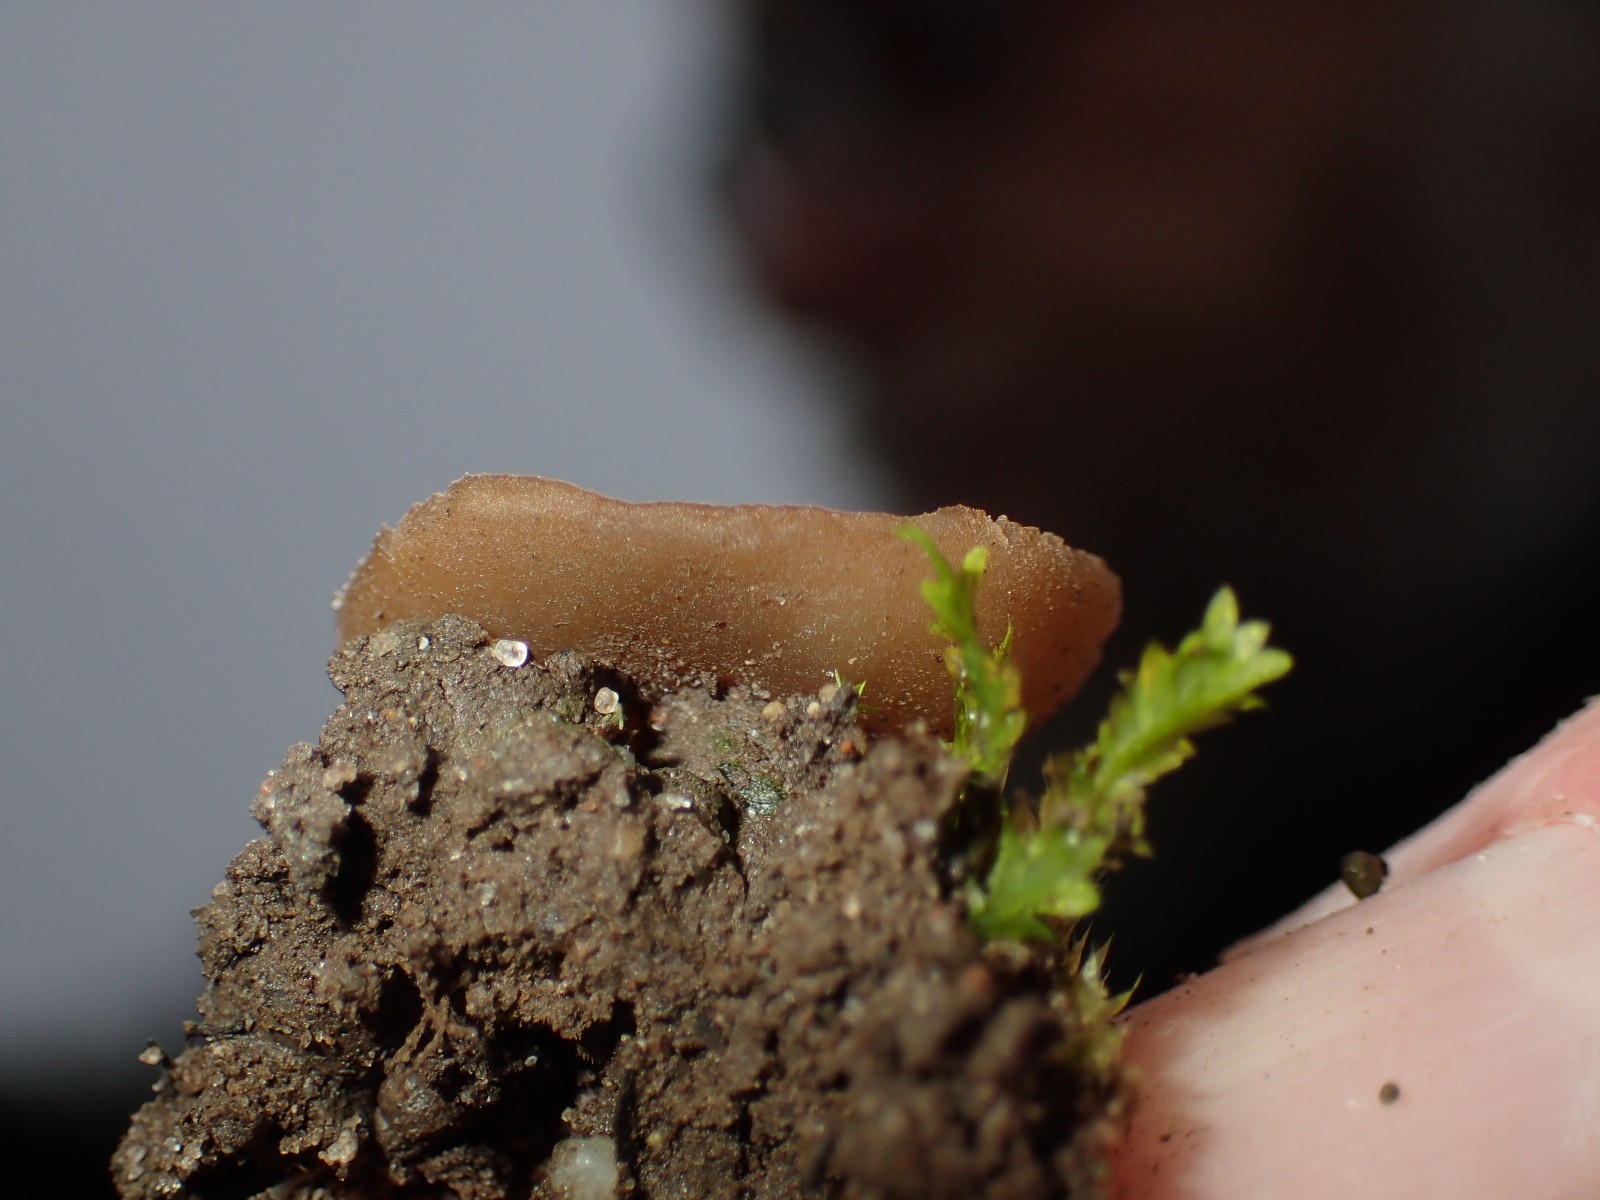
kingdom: Fungi
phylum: Ascomycota
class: Pezizomycetes
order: Pezizales
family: Pezizaceae
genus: Peziza
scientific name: Peziza
